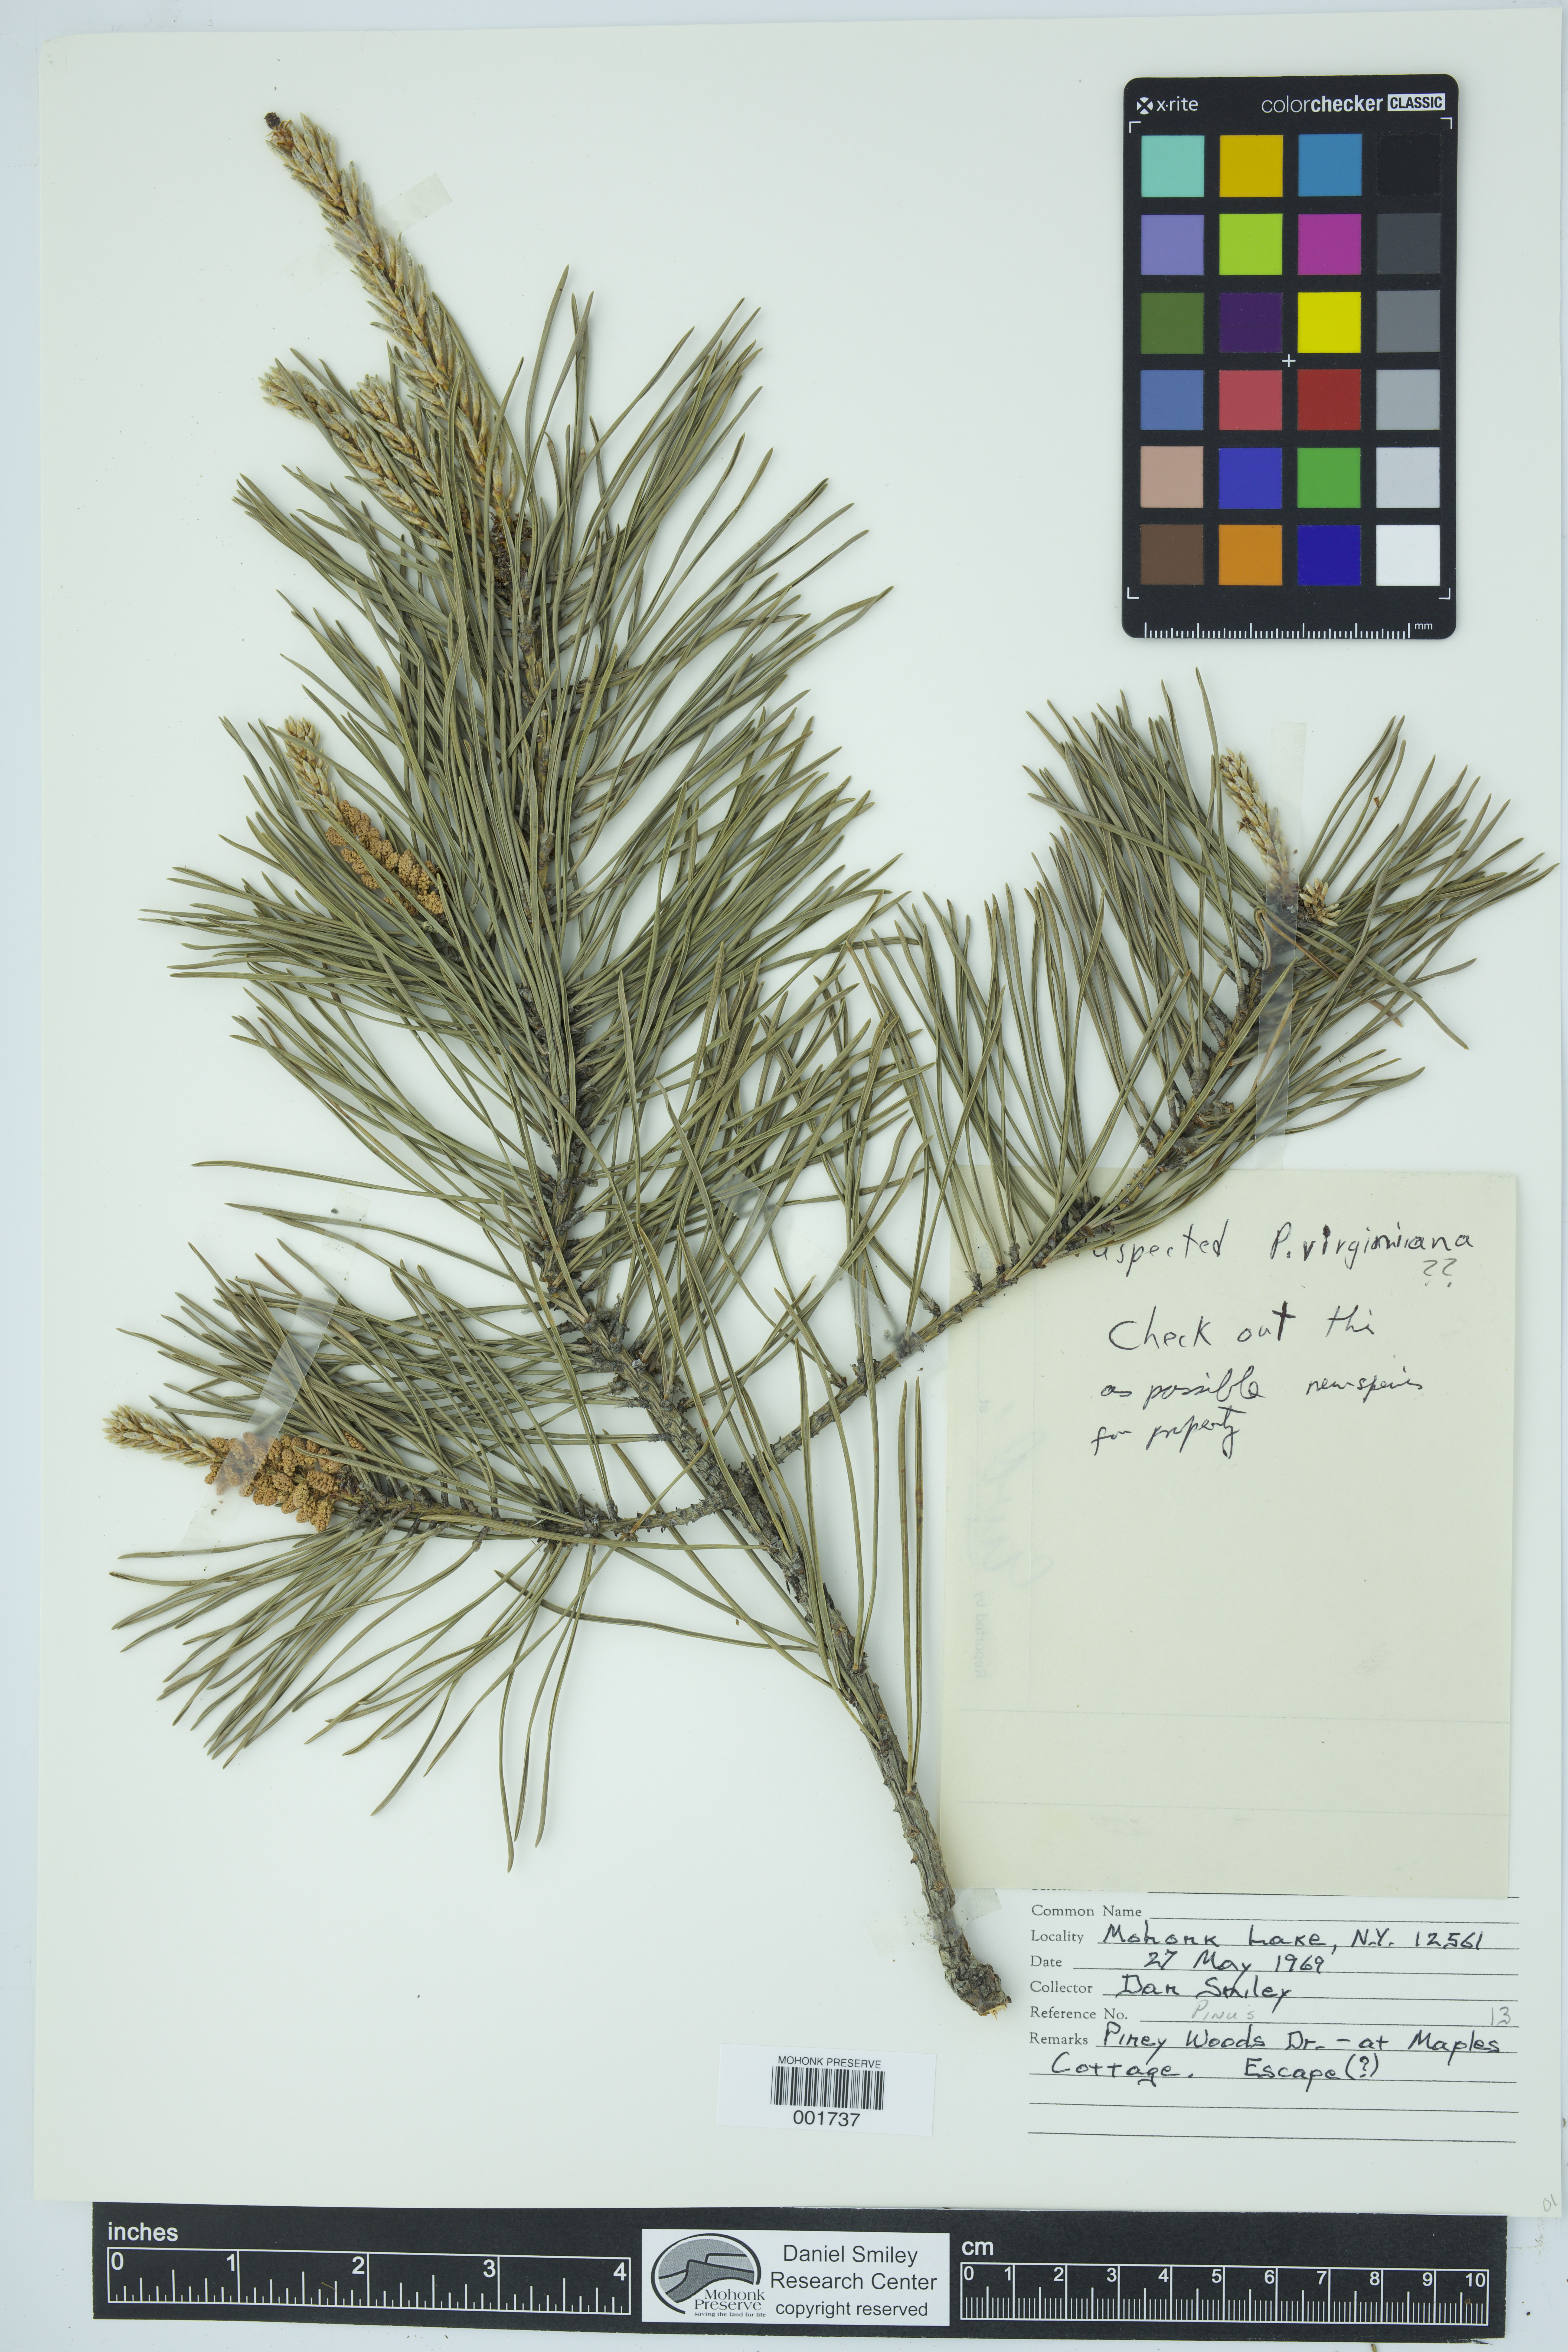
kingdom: Plantae
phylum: Tracheophyta
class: Pinopsida
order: Pinales
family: Pinaceae
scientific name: Pinaceae
